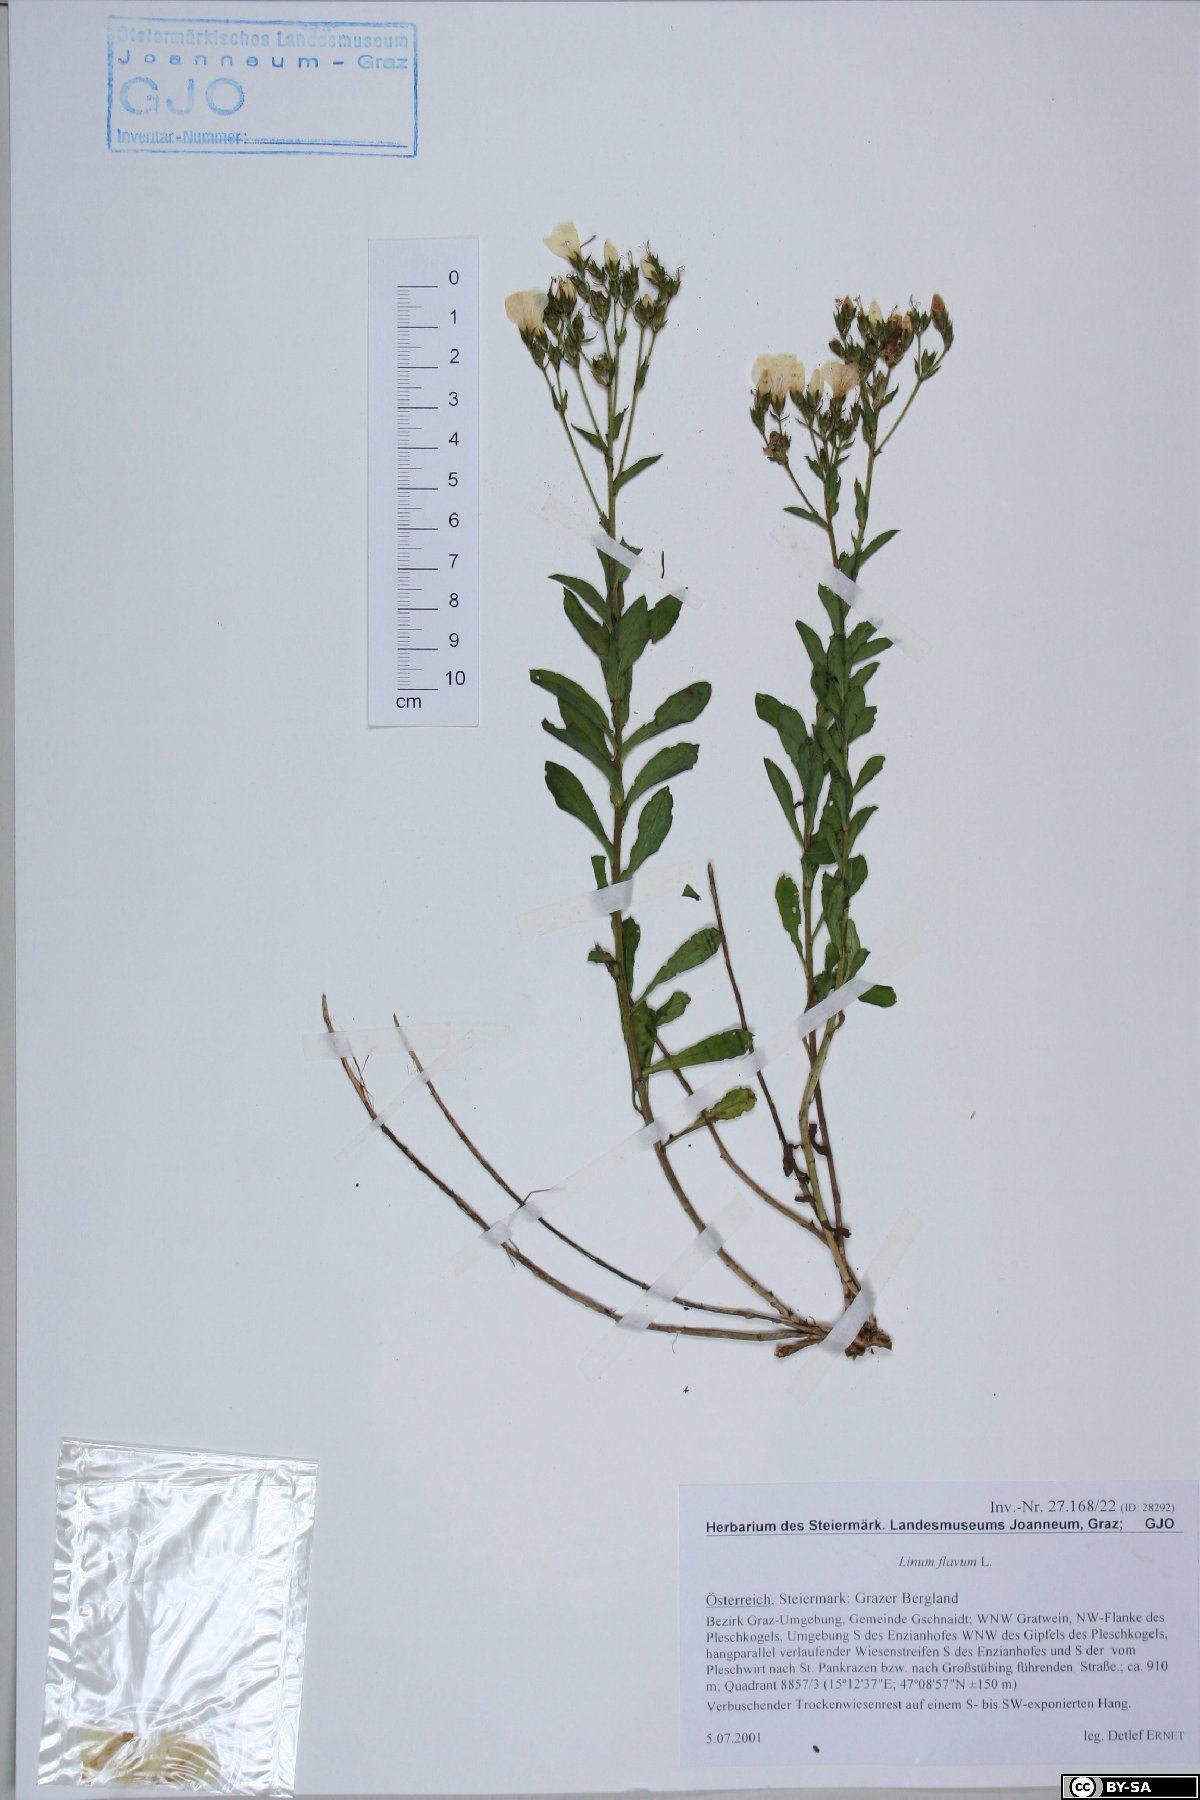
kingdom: Plantae
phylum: Tracheophyta
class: Magnoliopsida
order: Malpighiales
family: Linaceae
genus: Linum
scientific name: Linum flavum
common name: Yellow flax
